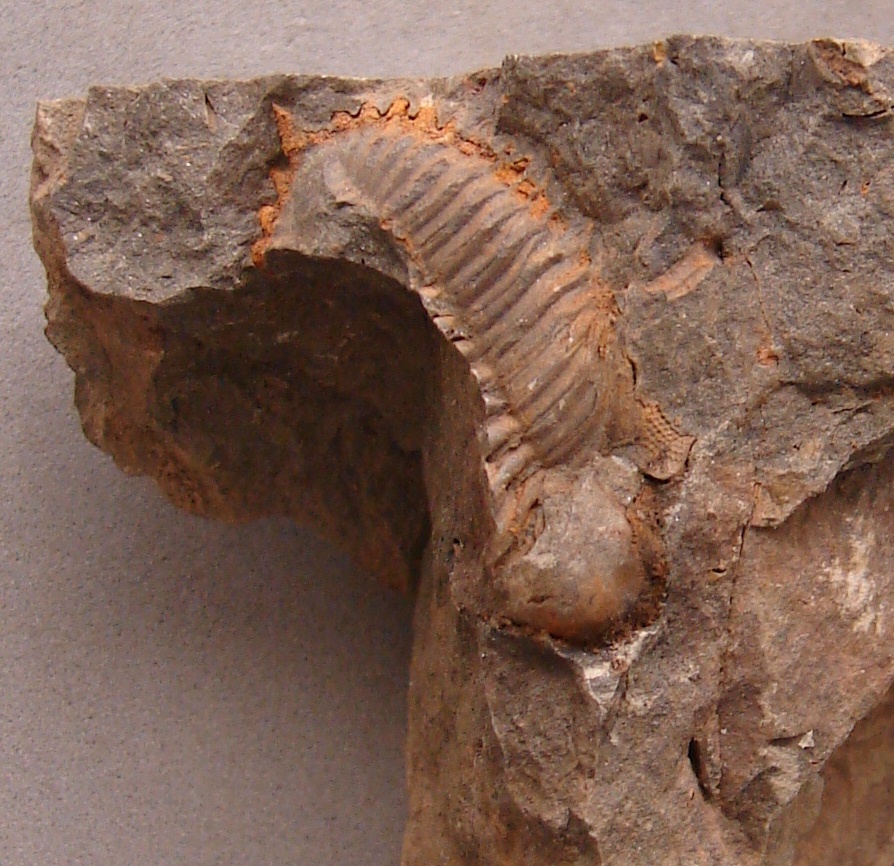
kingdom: Animalia
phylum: Arthropoda
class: Trilobita
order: Phacopida
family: Acastidae
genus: Kayserops
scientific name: Kayserops daleidensis
